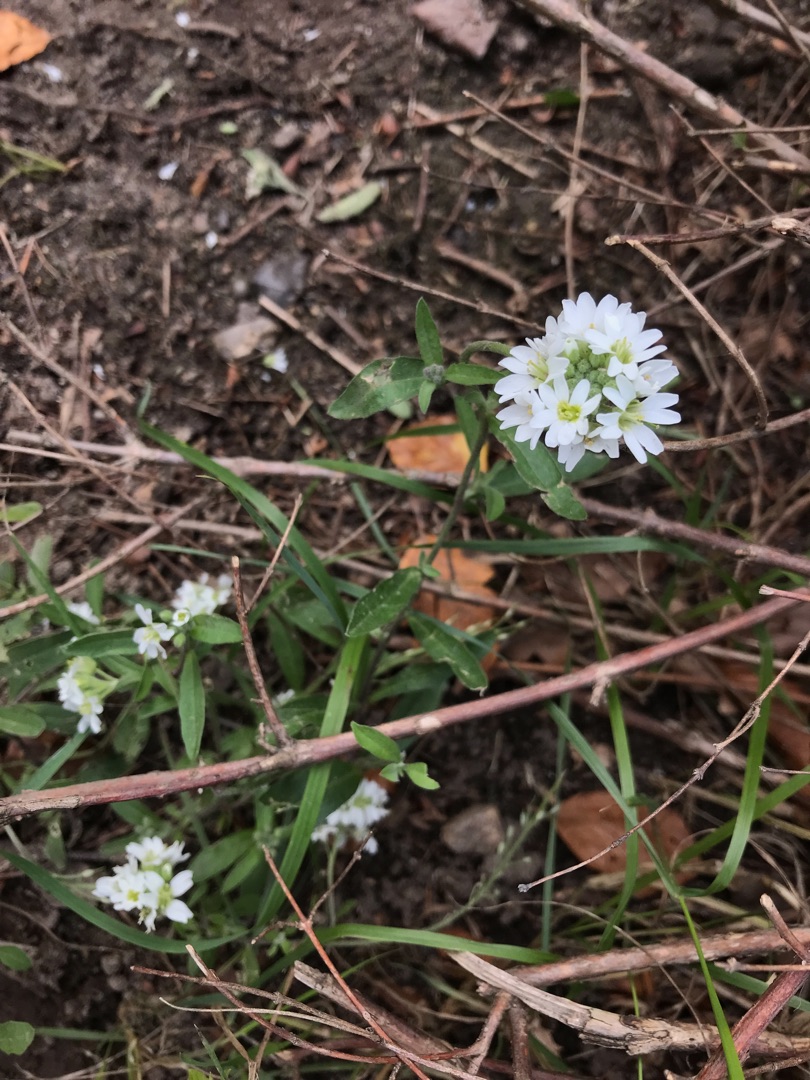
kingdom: Plantae
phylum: Tracheophyta
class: Magnoliopsida
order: Brassicales
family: Brassicaceae
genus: Berteroa
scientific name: Berteroa incana
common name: Kløvplade
